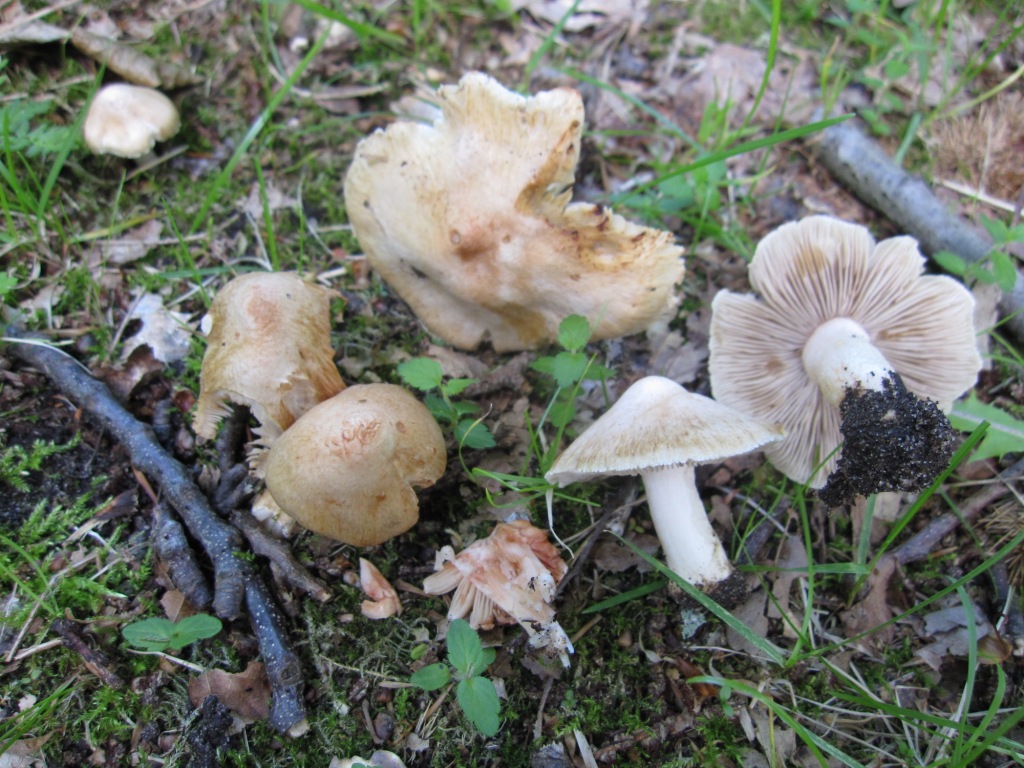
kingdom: Fungi
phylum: Basidiomycota
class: Agaricomycetes
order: Agaricales
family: Inocybaceae
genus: Inosperma
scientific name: Inosperma erubescens
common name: giftig trævlhat
